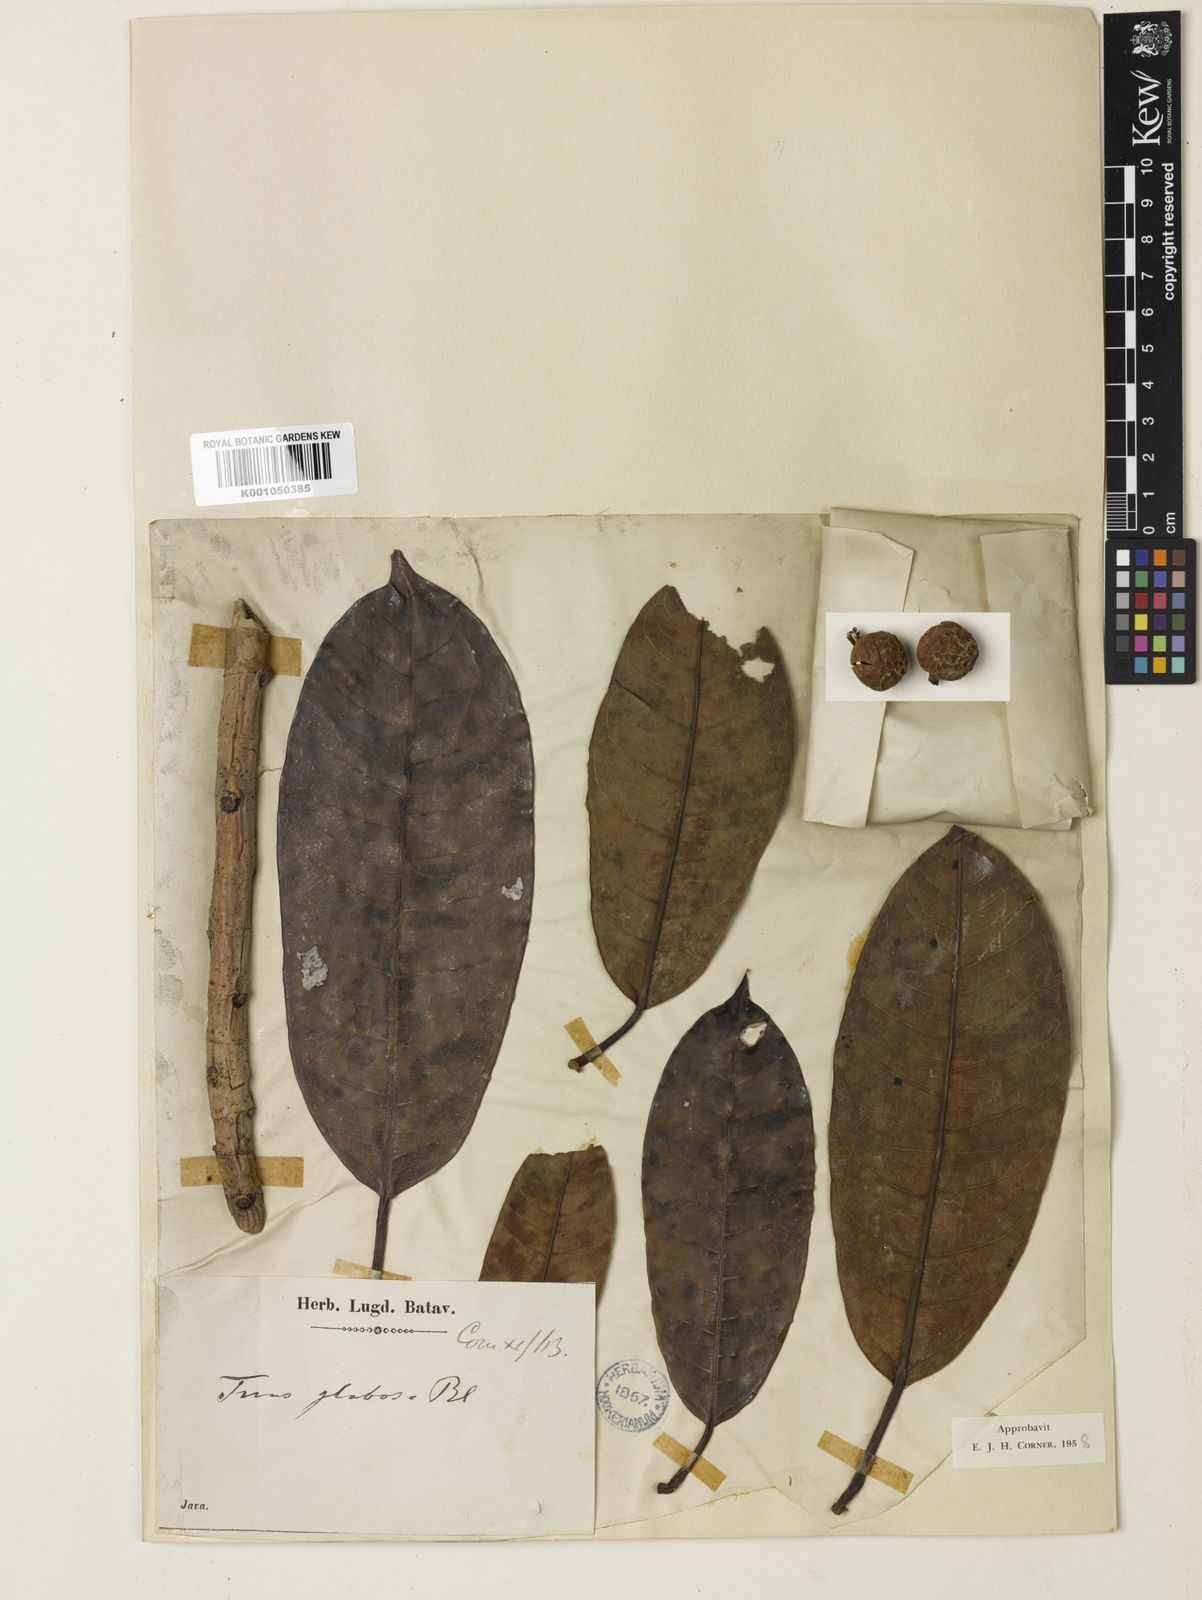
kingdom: Plantae
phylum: Tracheophyta
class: Magnoliopsida
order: Rosales
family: Moraceae
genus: Ficus
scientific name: Ficus globosa
